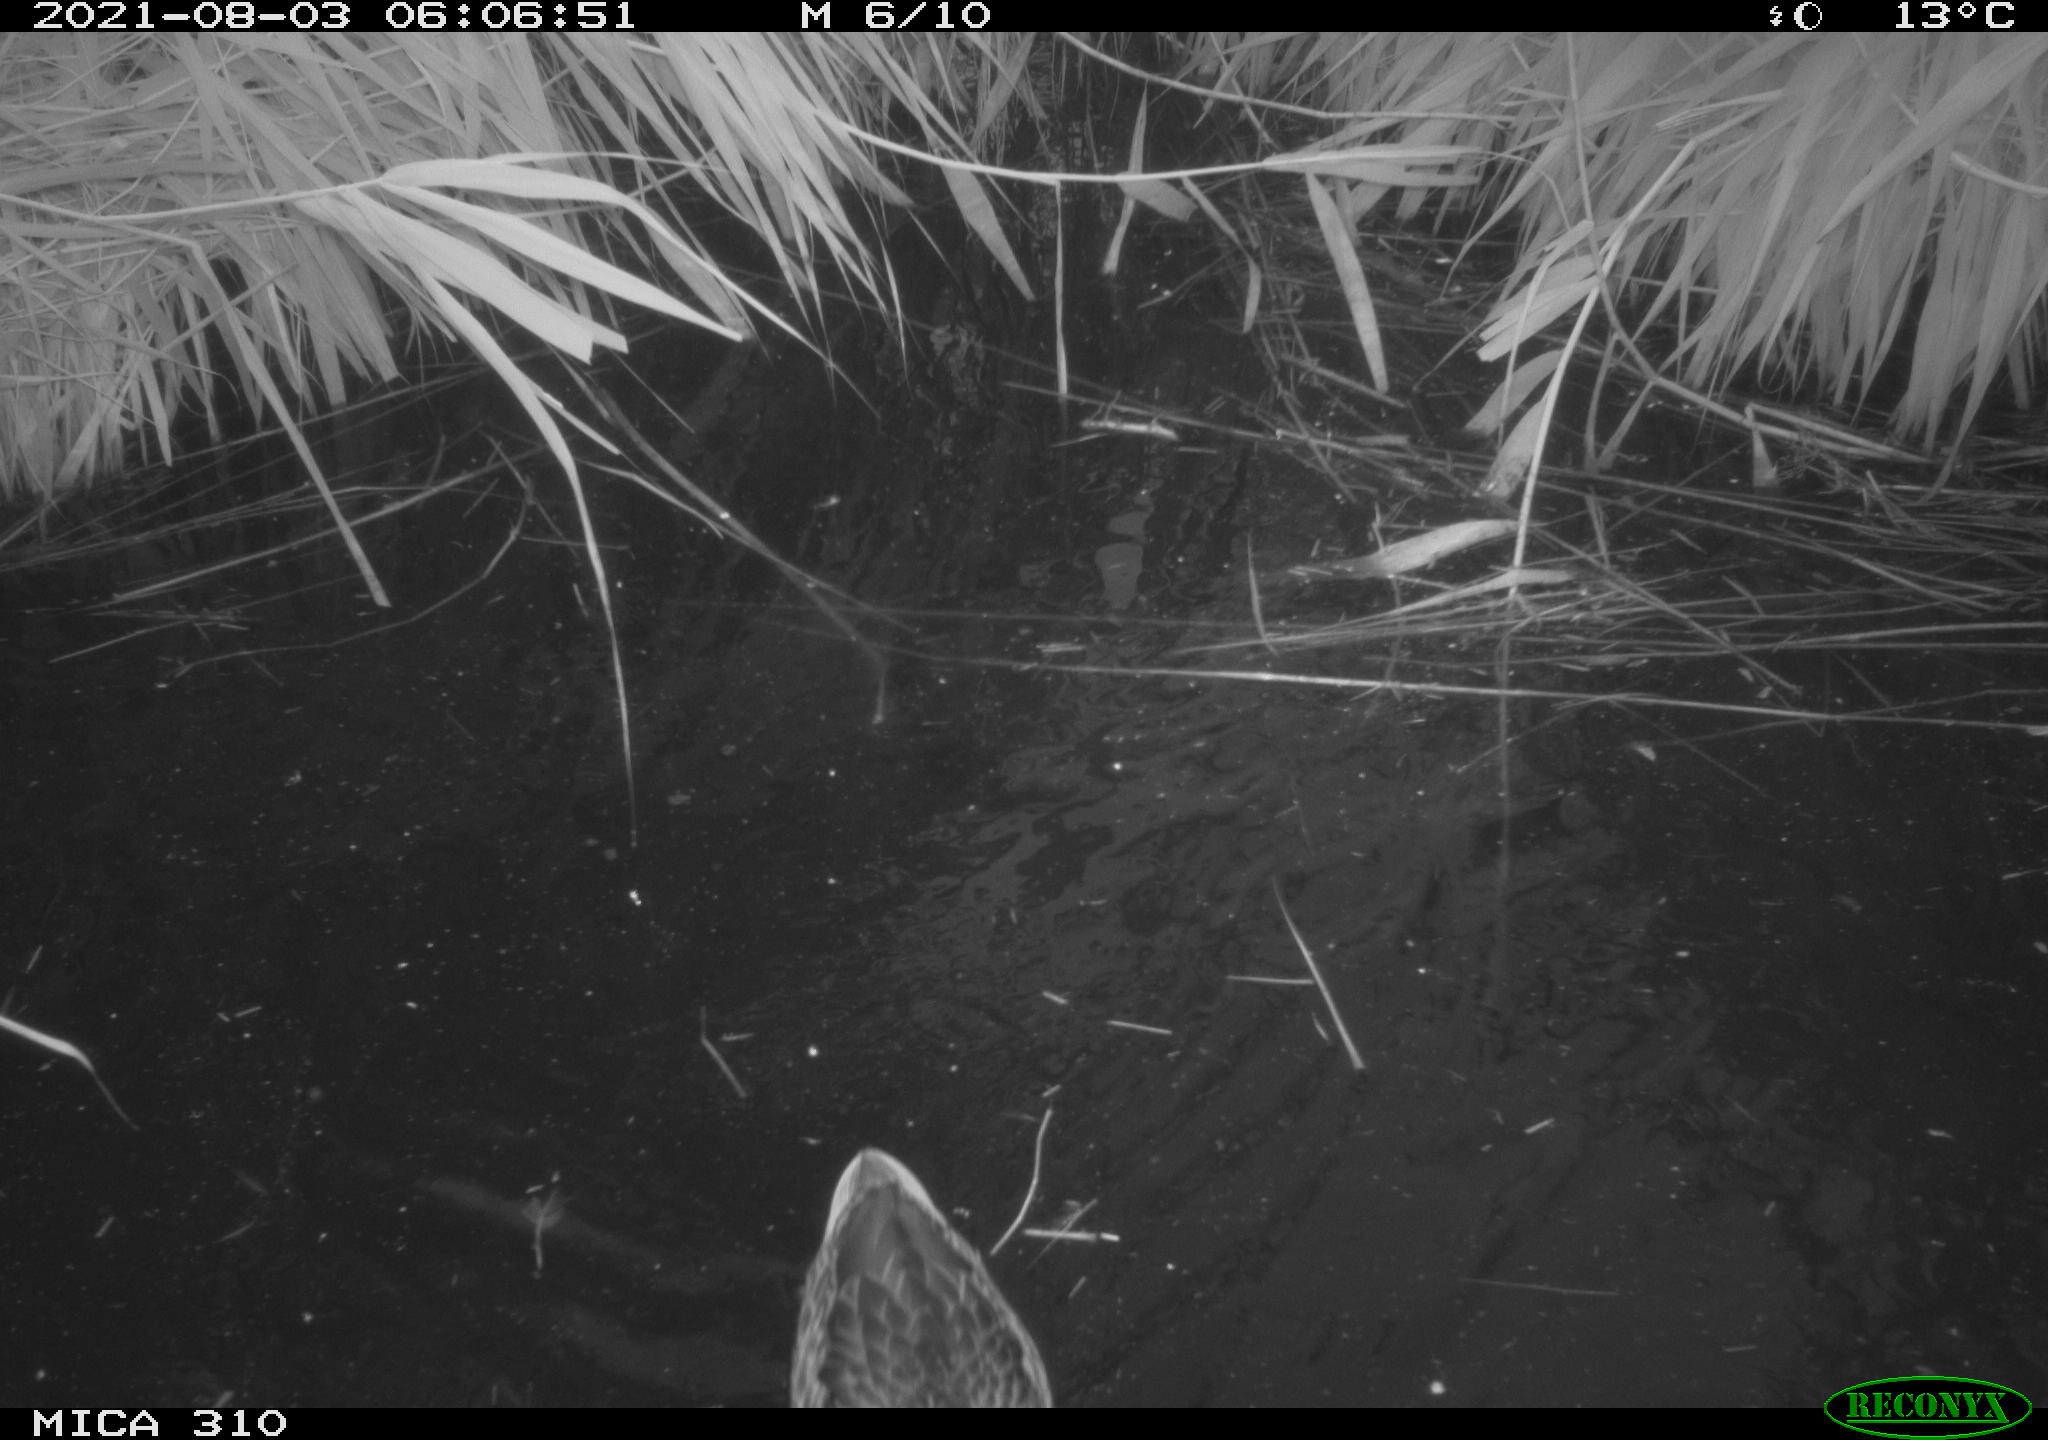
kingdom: Animalia
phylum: Chordata
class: Aves
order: Anseriformes
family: Anatidae
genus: Anas
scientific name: Anas platyrhynchos
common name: Mallard
